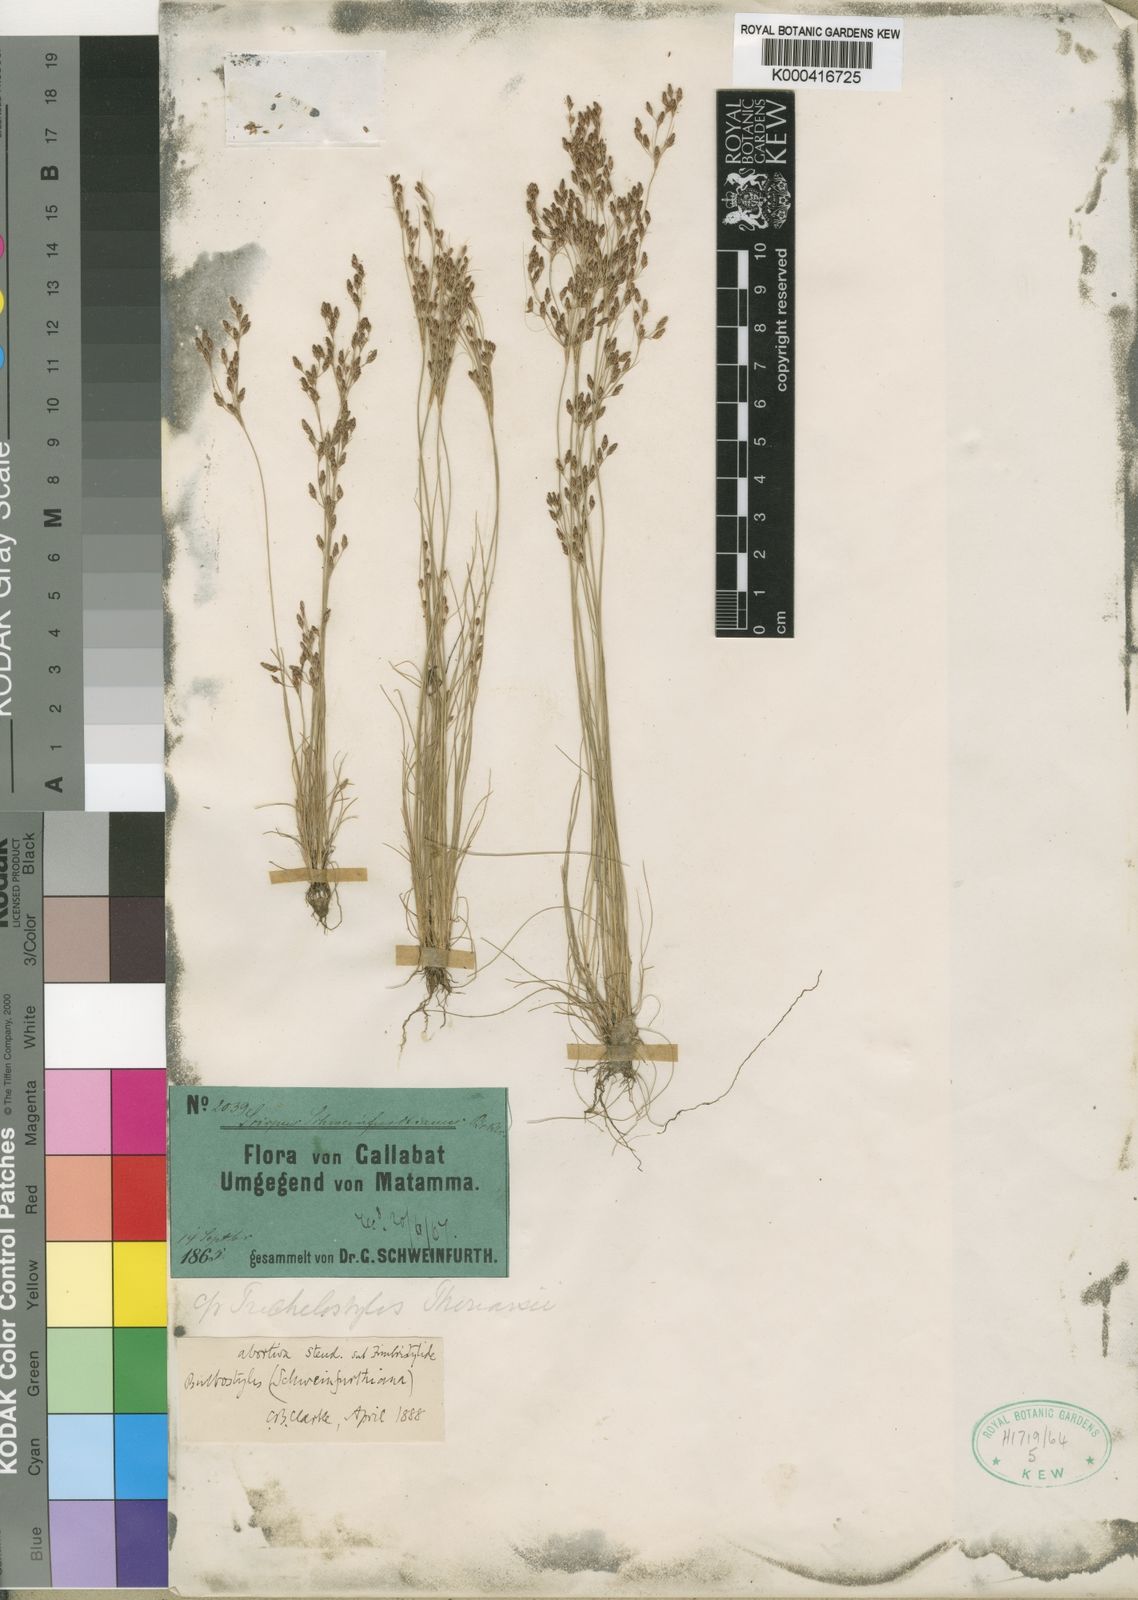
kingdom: Plantae
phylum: Tracheophyta
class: Liliopsida
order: Poales
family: Cyperaceae
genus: Bulbostylis
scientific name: Bulbostylis abortiva
